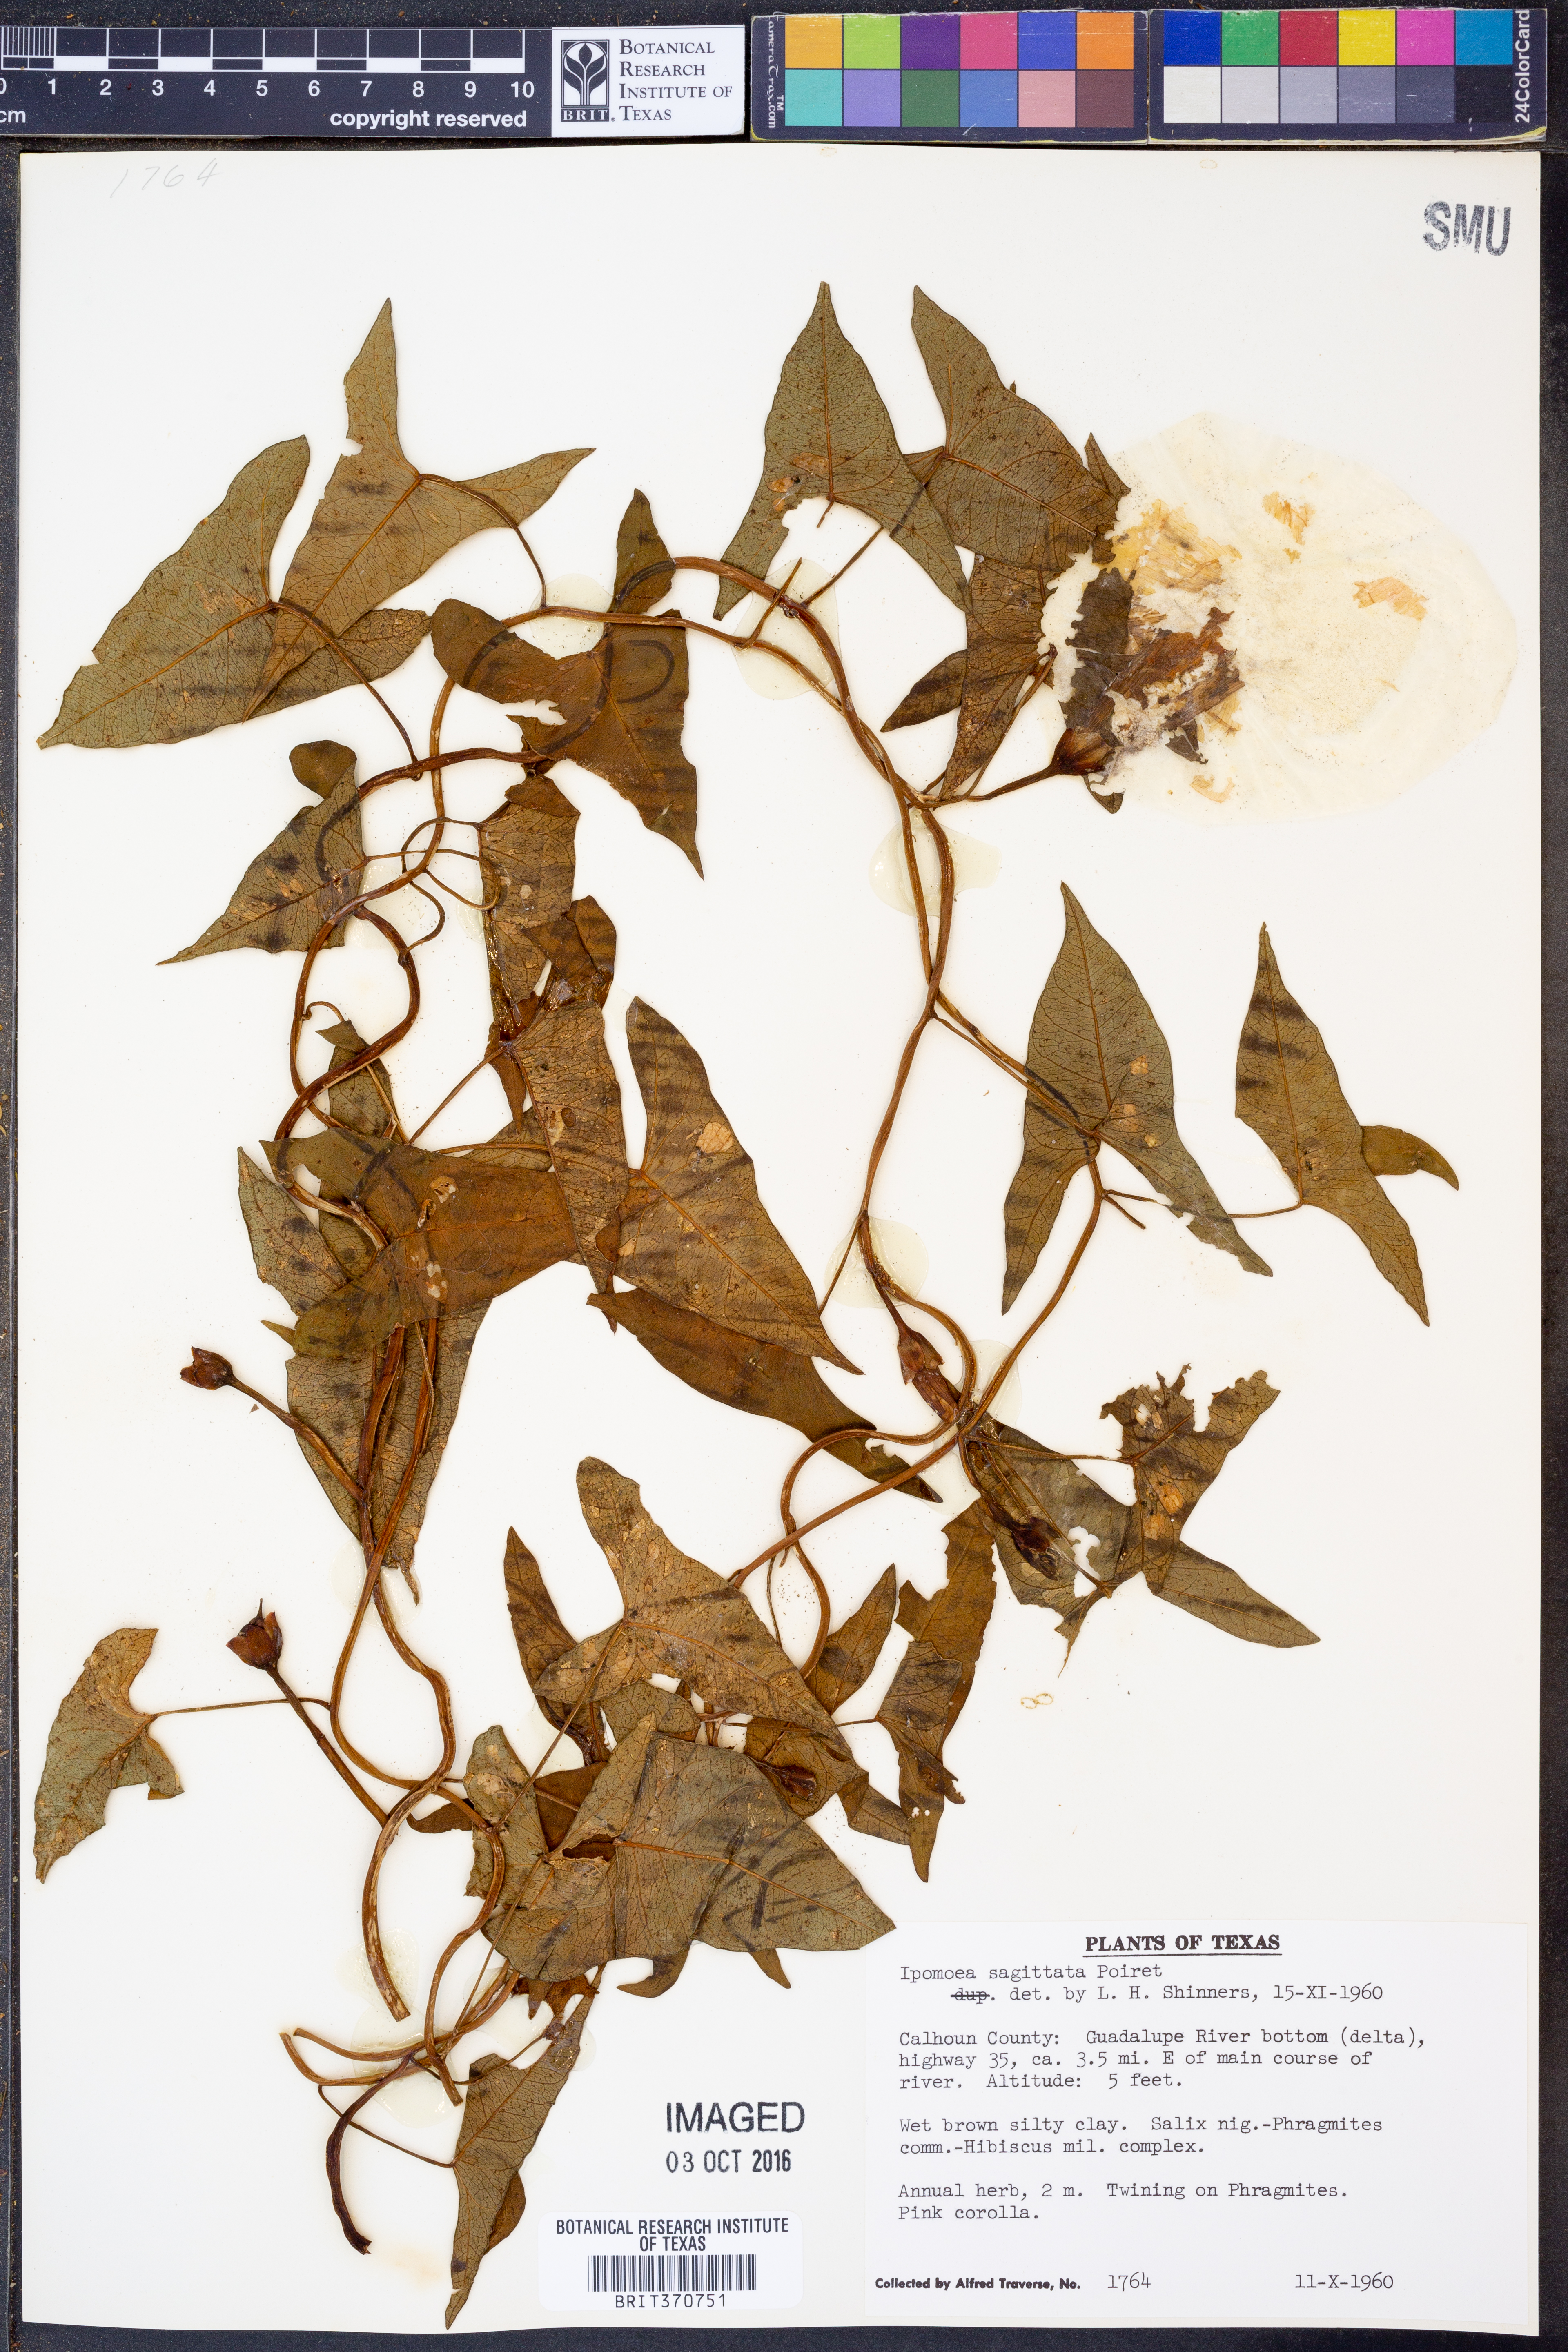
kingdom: Plantae
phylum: Tracheophyta
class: Magnoliopsida
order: Solanales
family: Convolvulaceae
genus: Ipomoea
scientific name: Ipomoea sinensis
